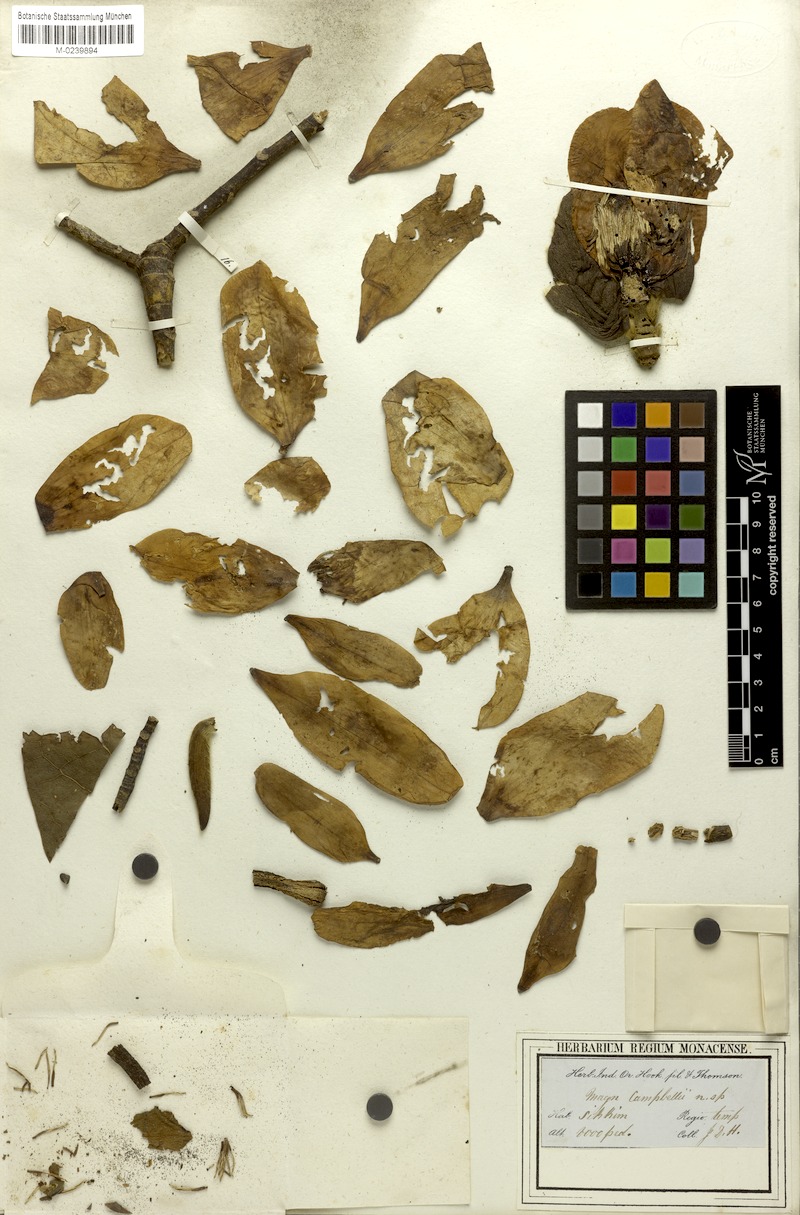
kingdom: Plantae
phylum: Tracheophyta
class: Magnoliopsida
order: Magnoliales
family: Magnoliaceae
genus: Magnolia
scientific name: Magnolia campbellii
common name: Campbell's magnolia
